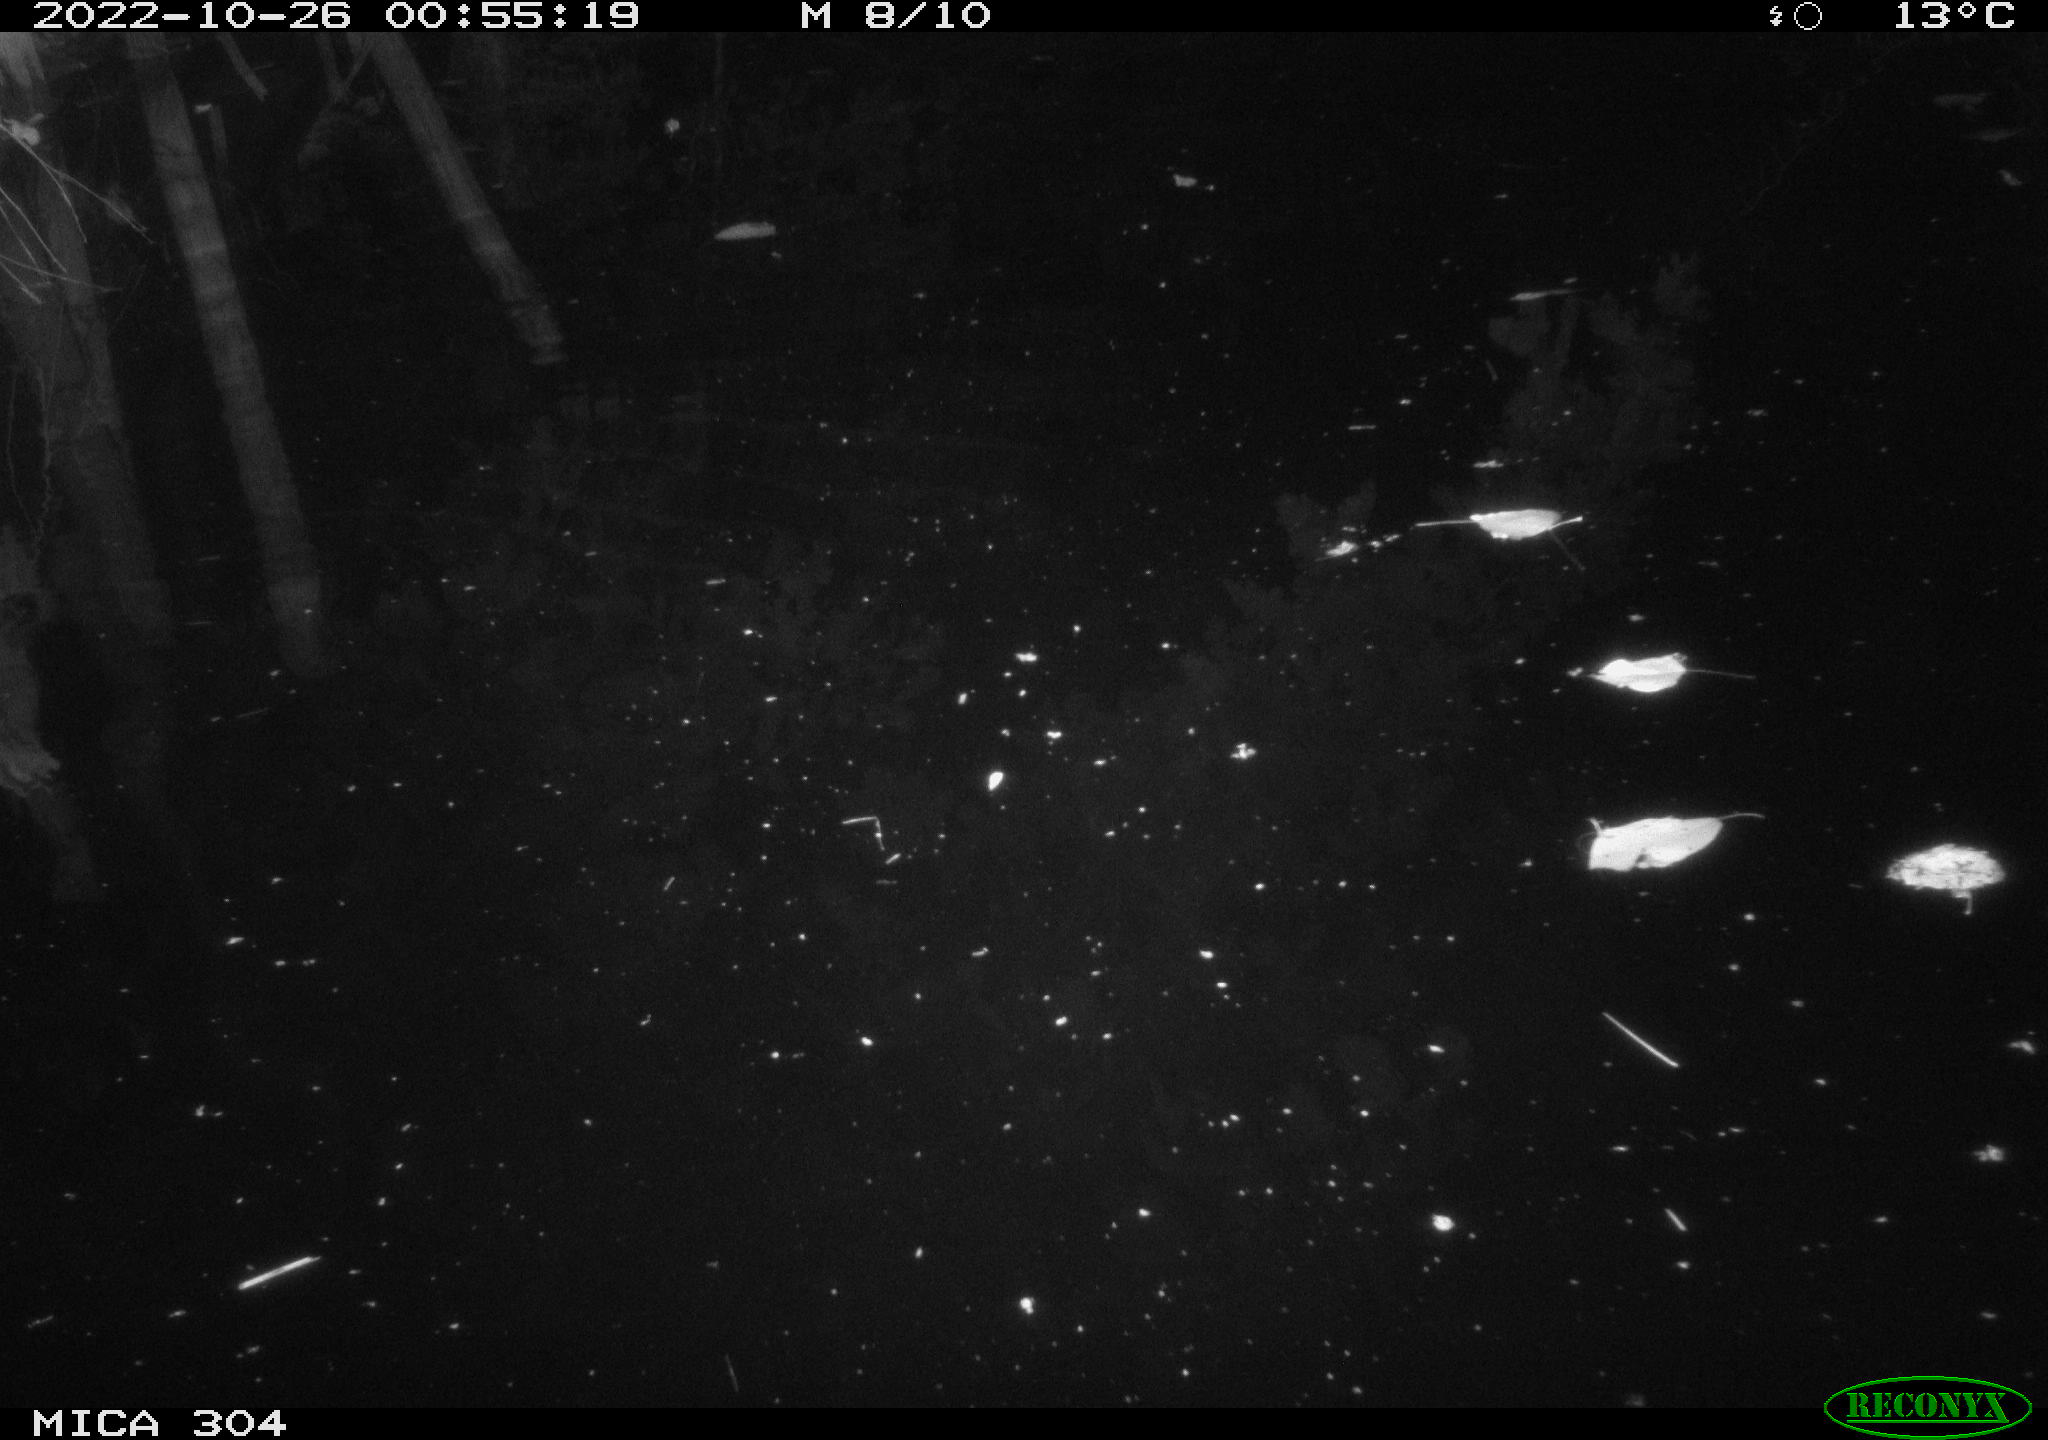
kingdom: Animalia
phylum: Chordata
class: Mammalia
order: Rodentia
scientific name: Rodentia
